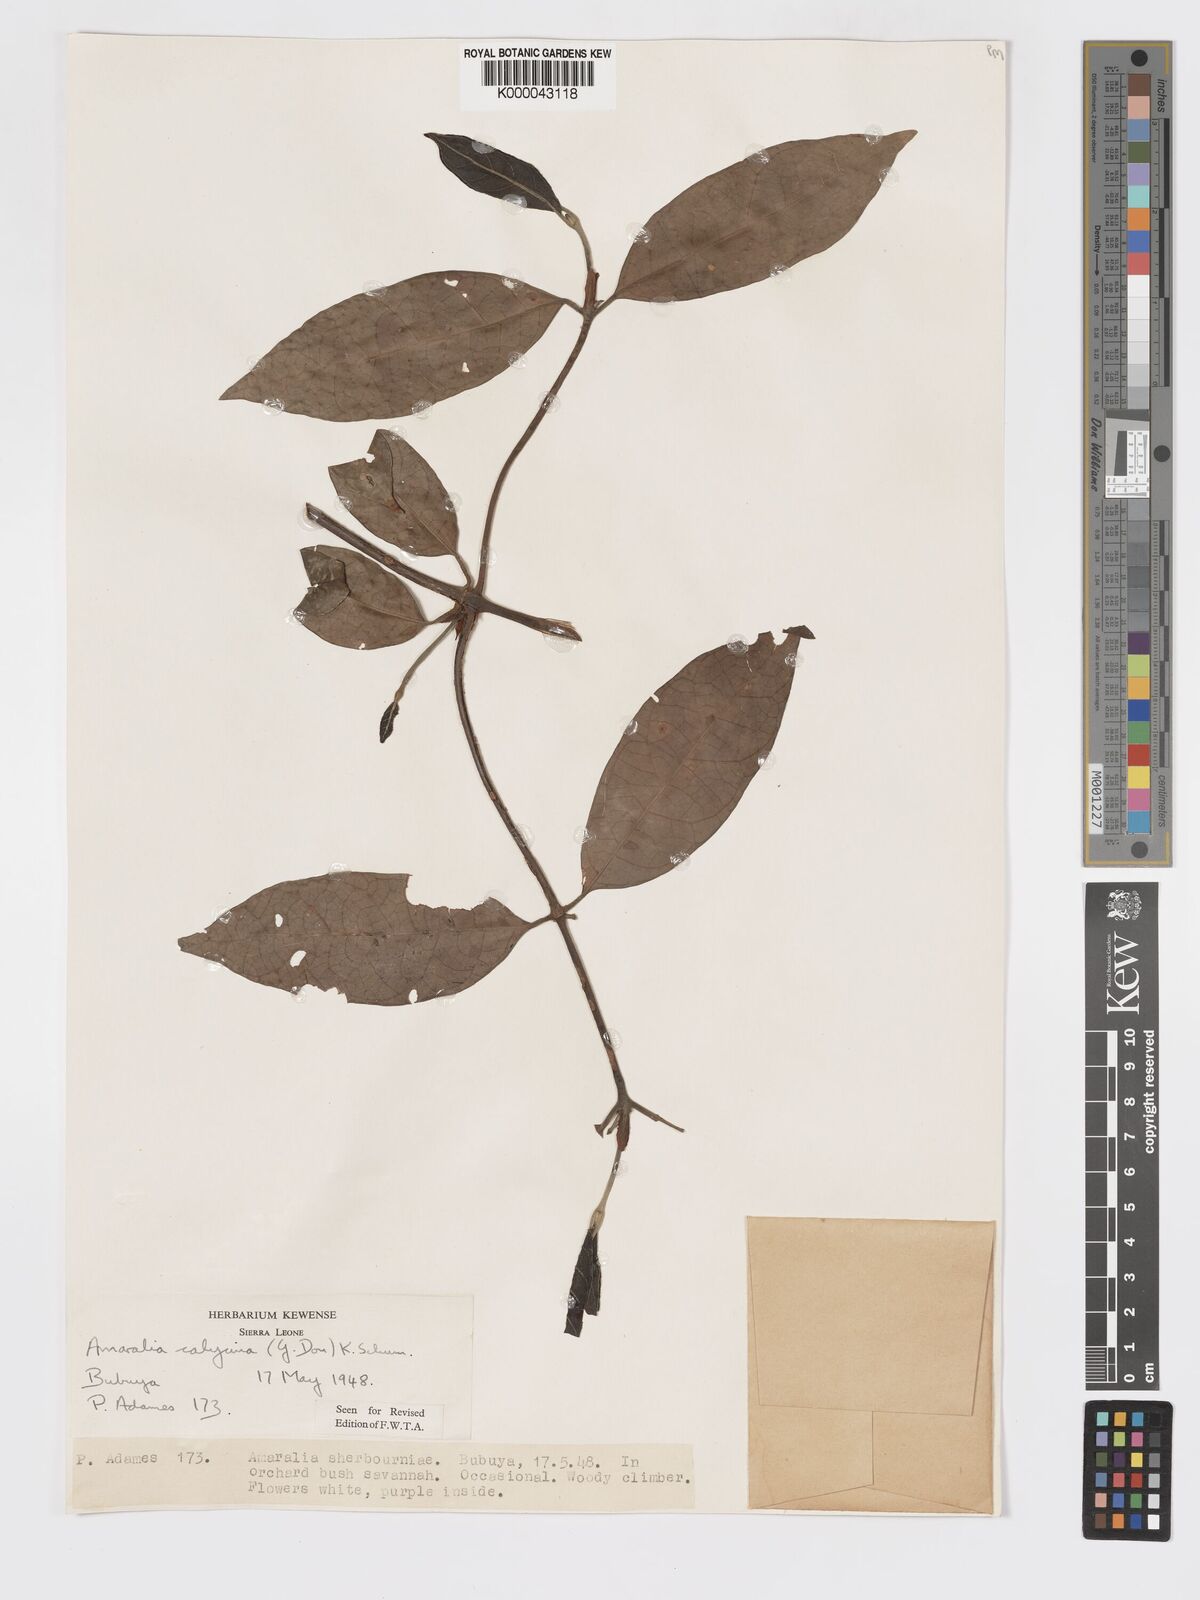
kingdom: Plantae
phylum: Tracheophyta
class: Magnoliopsida
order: Gentianales
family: Rubiaceae
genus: Sherbournia
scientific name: Sherbournia calycina
